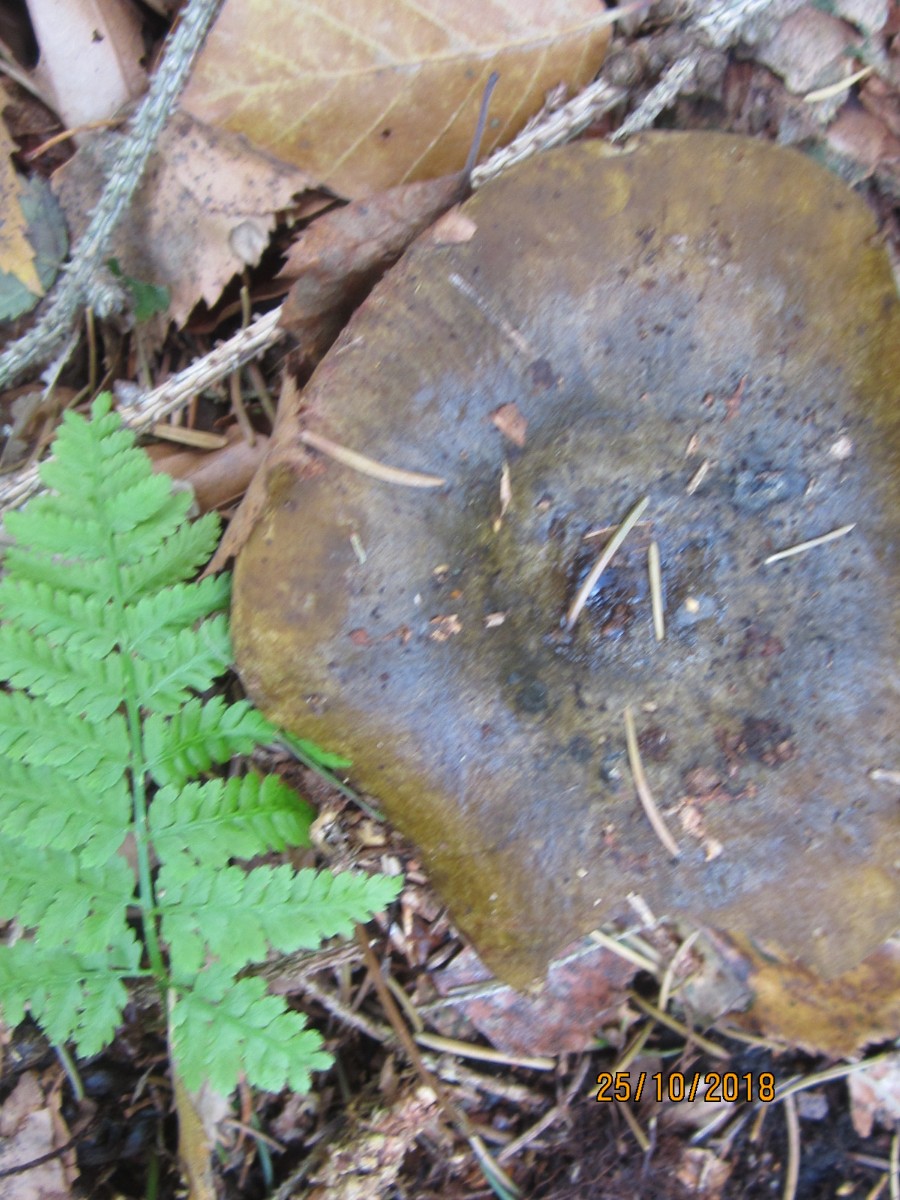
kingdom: Fungi
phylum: Basidiomycota
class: Agaricomycetes
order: Russulales
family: Russulaceae
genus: Lactarius
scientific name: Lactarius necator
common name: manddraber-mælkehat
